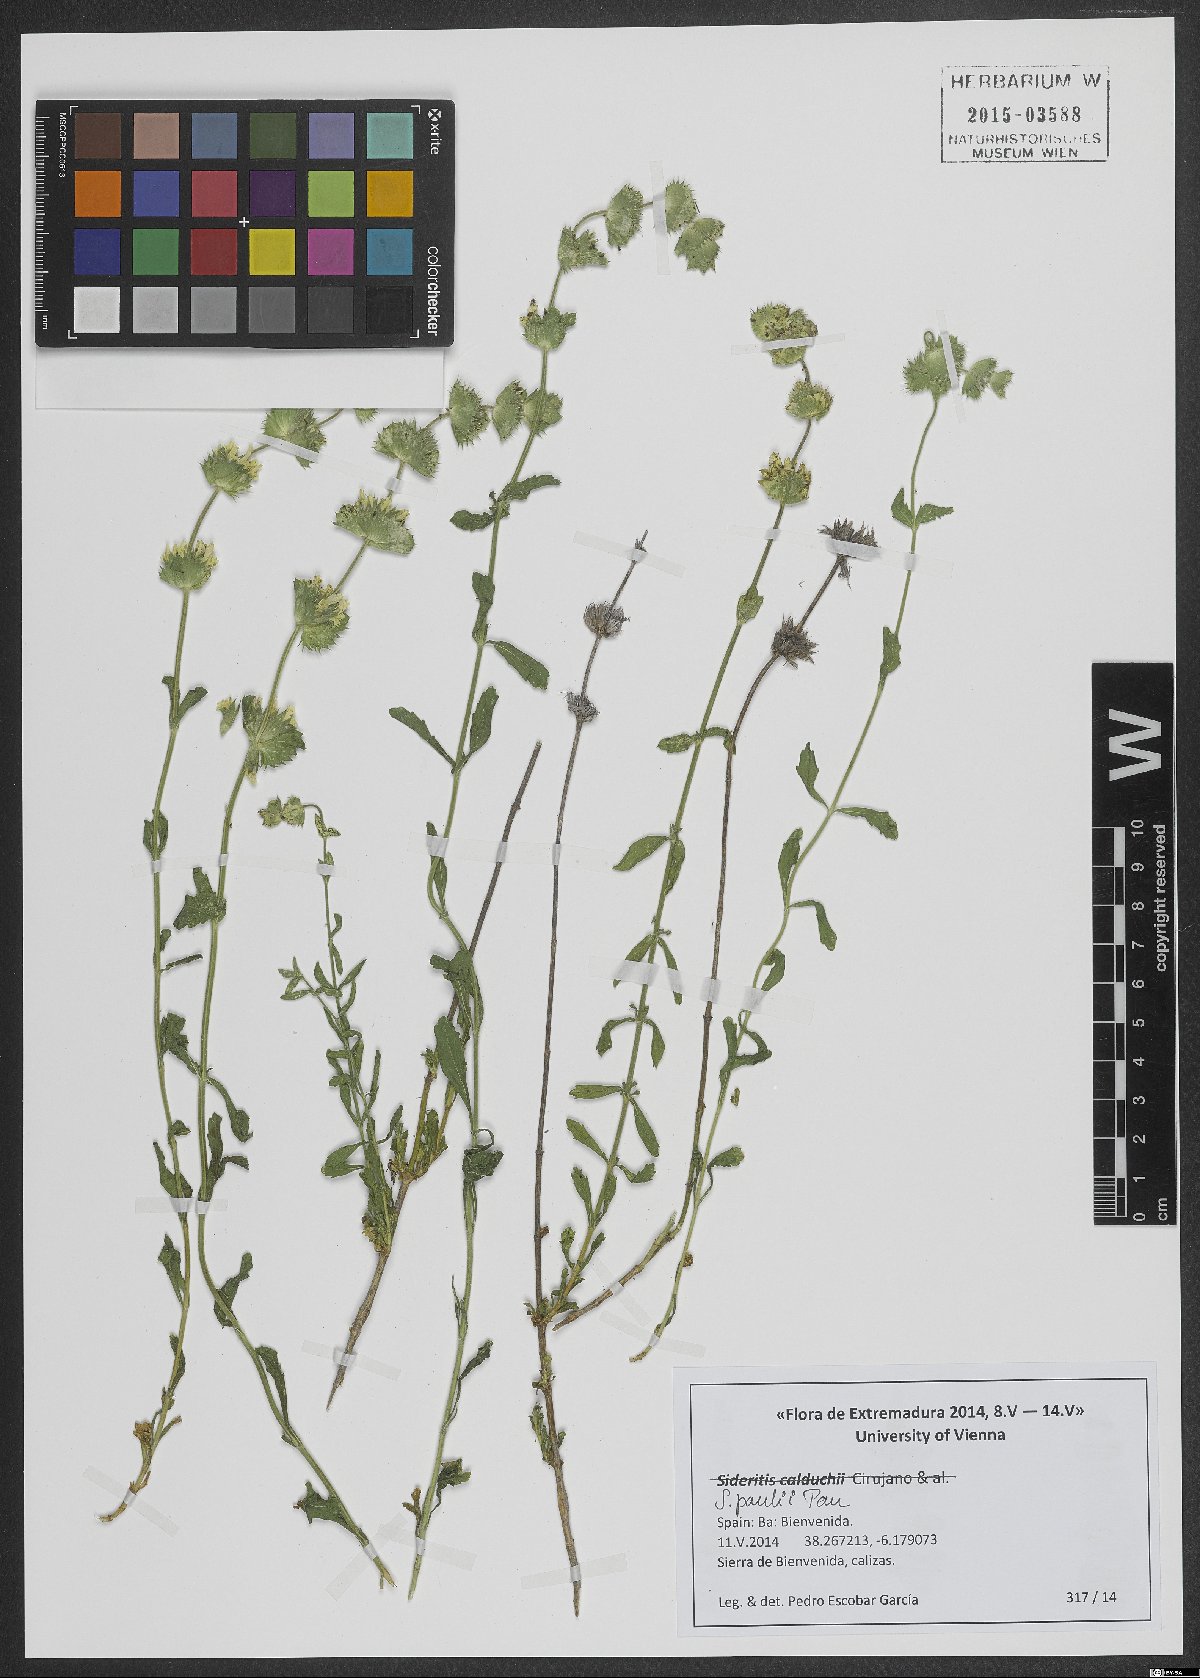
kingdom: Plantae
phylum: Tracheophyta
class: Magnoliopsida
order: Lamiales
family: Lamiaceae
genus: Sideritis
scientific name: Sideritis pauli
